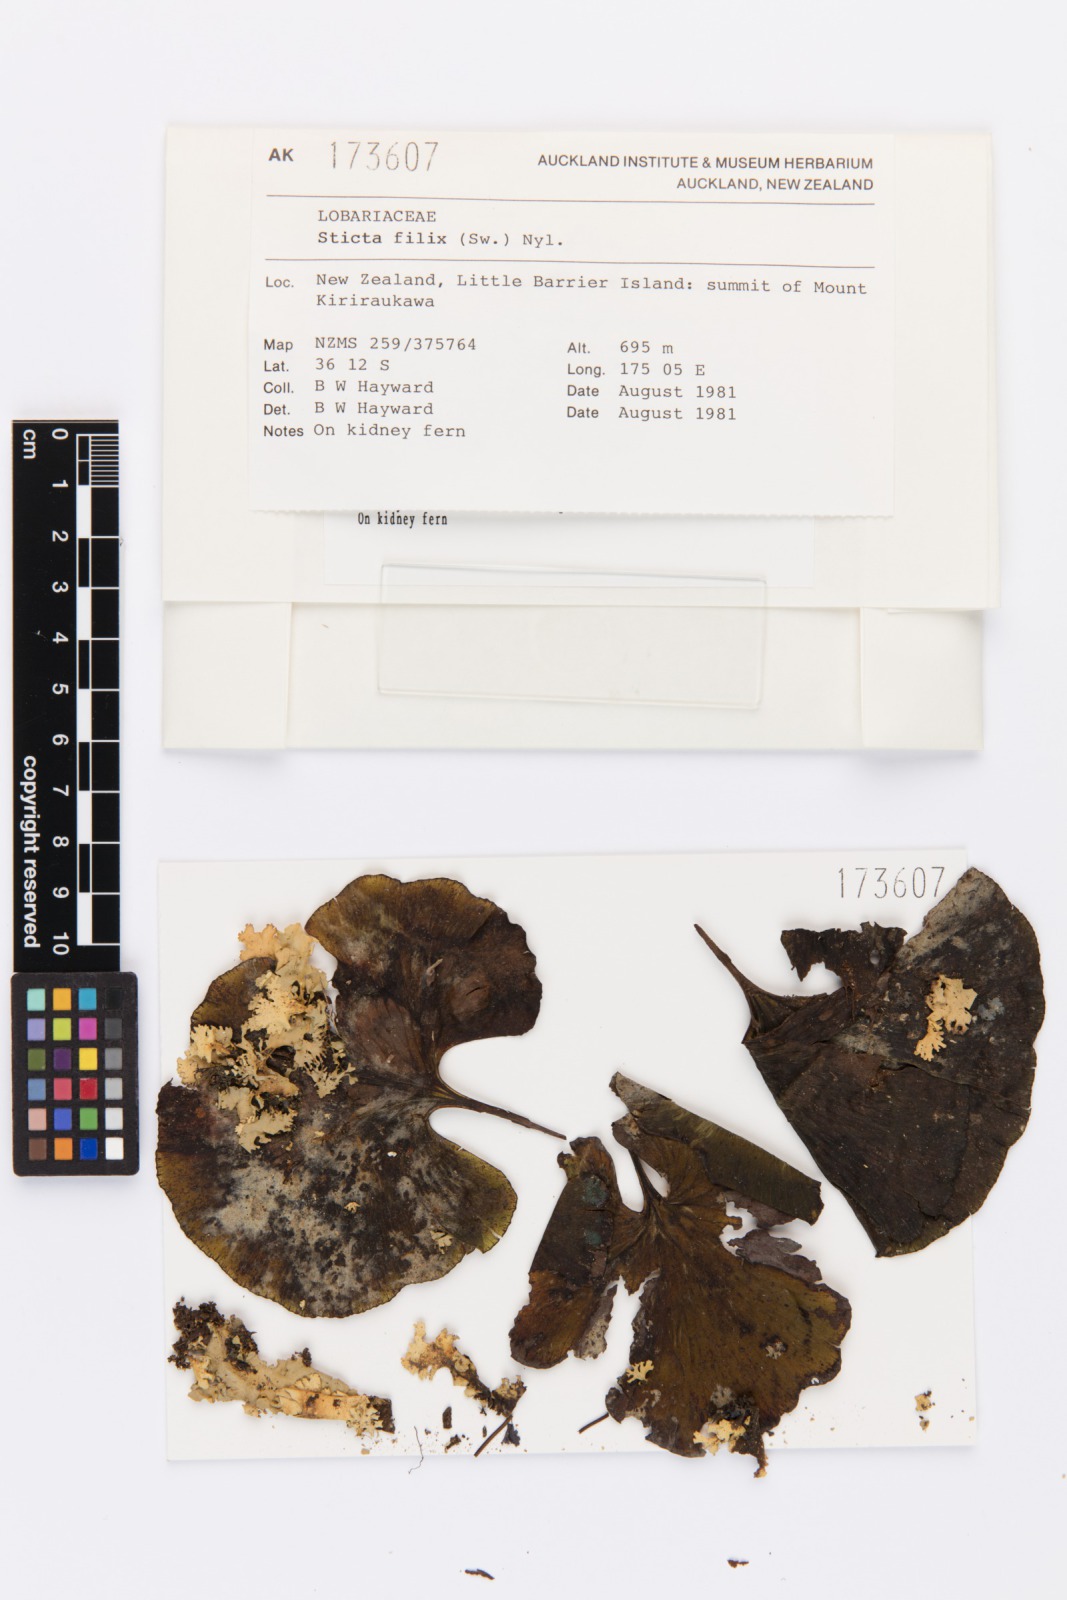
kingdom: Fungi
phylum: Ascomycota
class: Lecanoromycetes
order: Peltigerales
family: Lobariaceae
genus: Sticta
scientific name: Sticta filix
